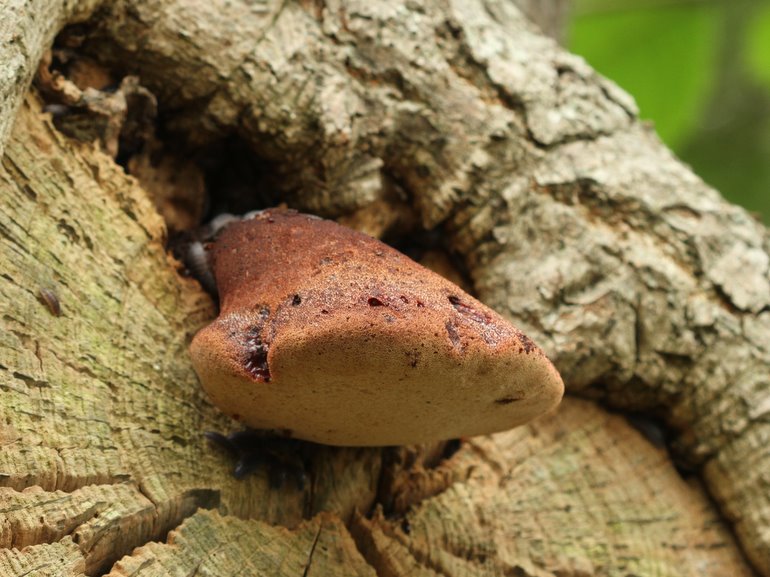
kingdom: Fungi
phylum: Basidiomycota
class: Agaricomycetes
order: Agaricales
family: Fistulinaceae
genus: Fistulina
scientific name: Fistulina hepatica
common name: oksetunge
